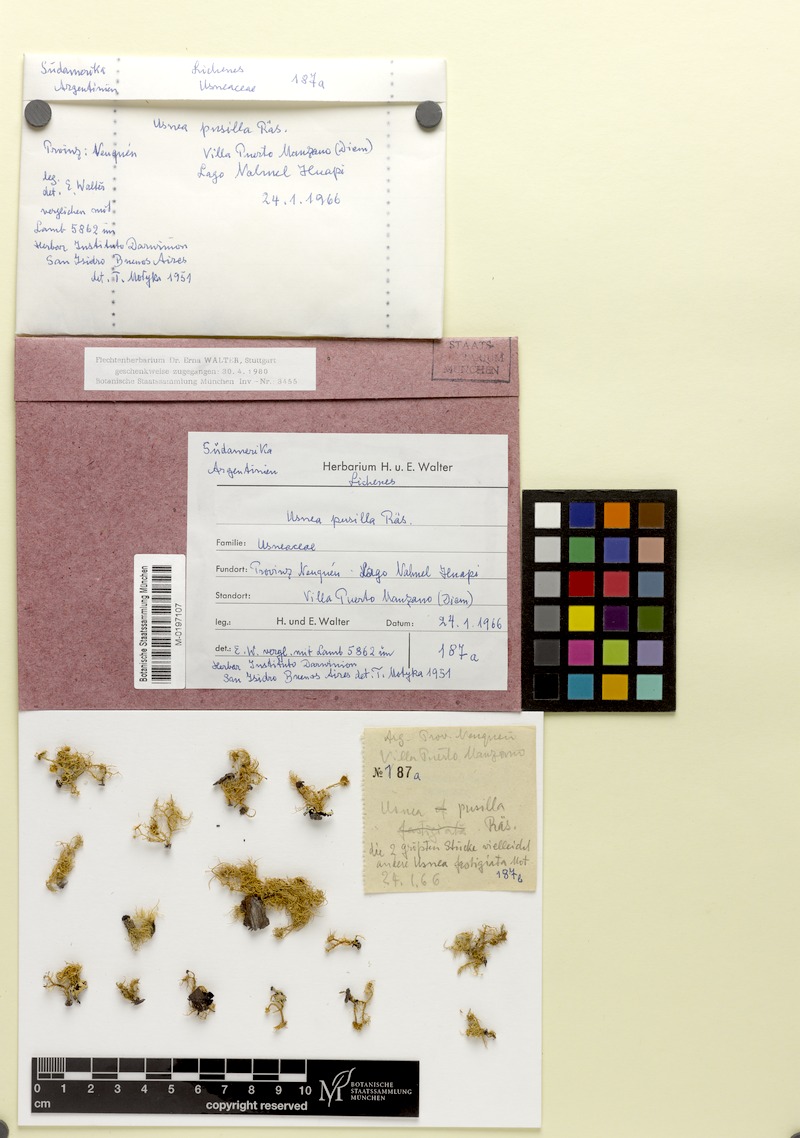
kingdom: Fungi
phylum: Ascomycota
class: Lecanoromycetes
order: Lecanorales
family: Parmeliaceae
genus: Usnea
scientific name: Usnea
